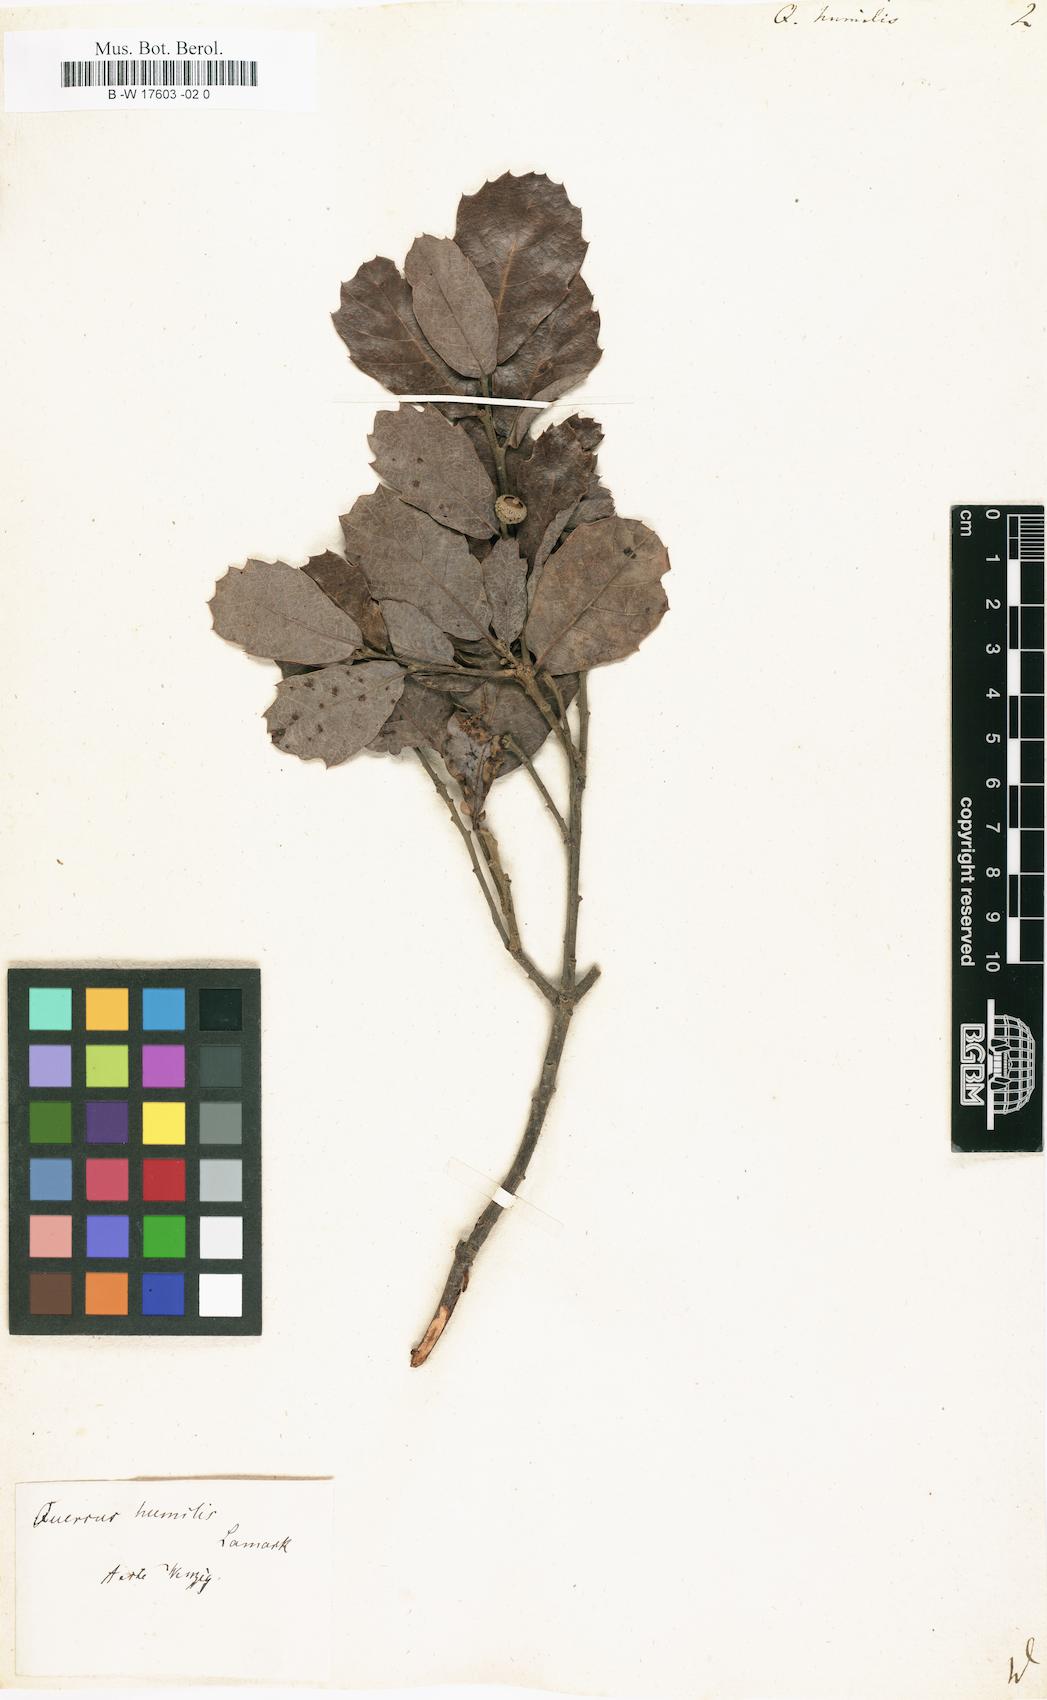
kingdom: Plantae
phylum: Tracheophyta
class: Magnoliopsida
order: Fagales
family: Fagaceae
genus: Quercus
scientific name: Quercus
